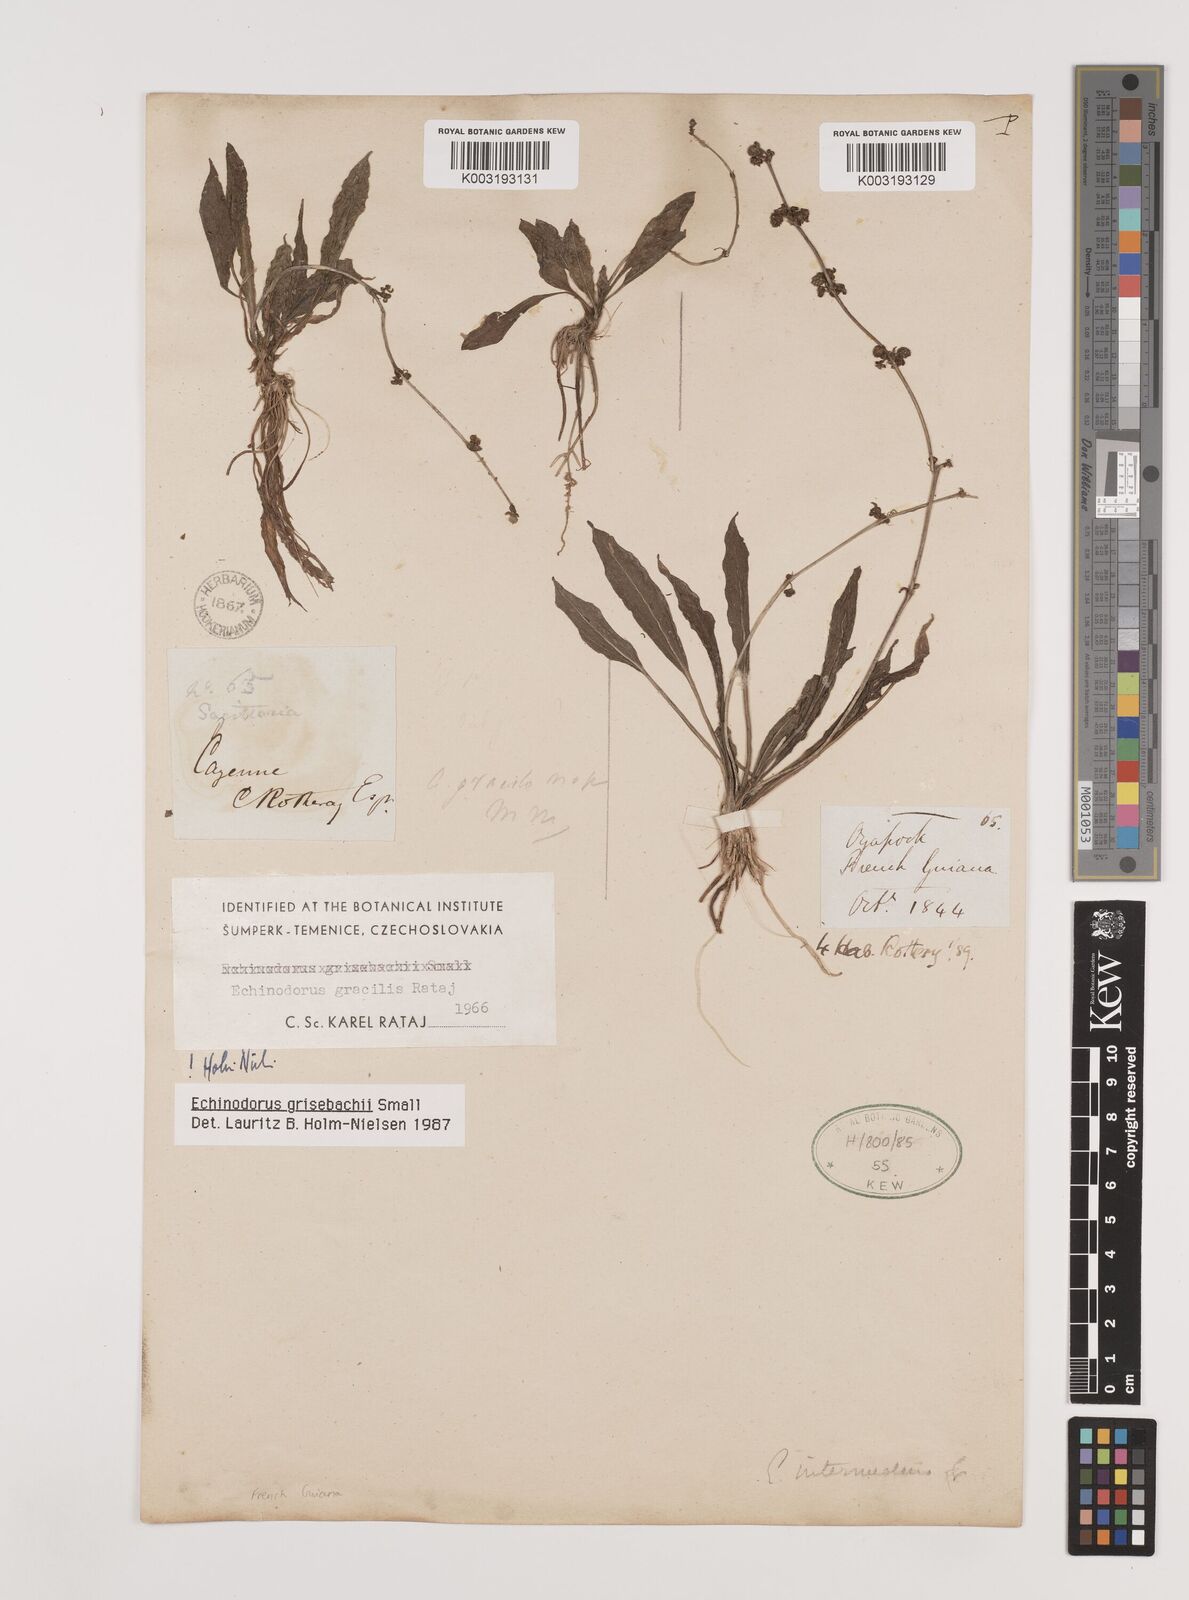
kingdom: Plantae
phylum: Tracheophyta
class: Liliopsida
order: Alismatales
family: Alismataceae
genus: Aquarius
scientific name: Aquarius grisebachii
